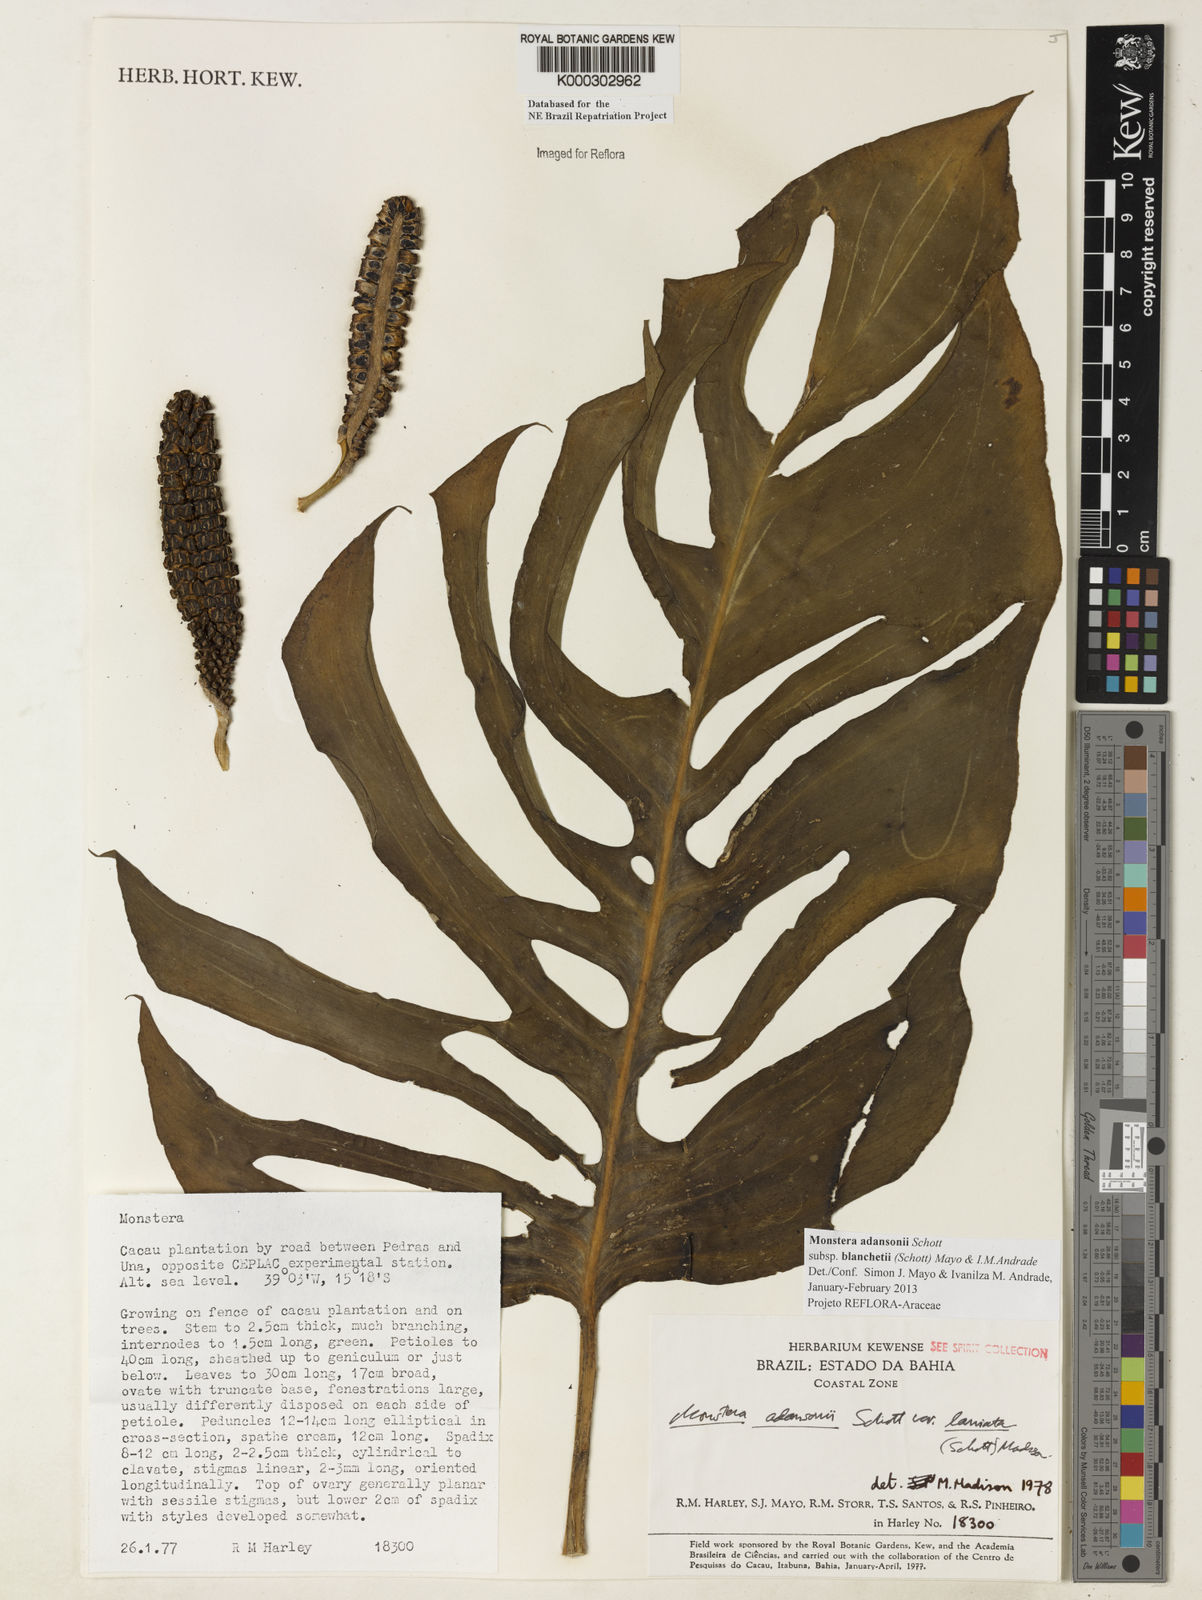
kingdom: Plantae
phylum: Tracheophyta
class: Liliopsida
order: Alismatales
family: Araceae
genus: Monstera
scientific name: Monstera adansonii
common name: Tarovine
